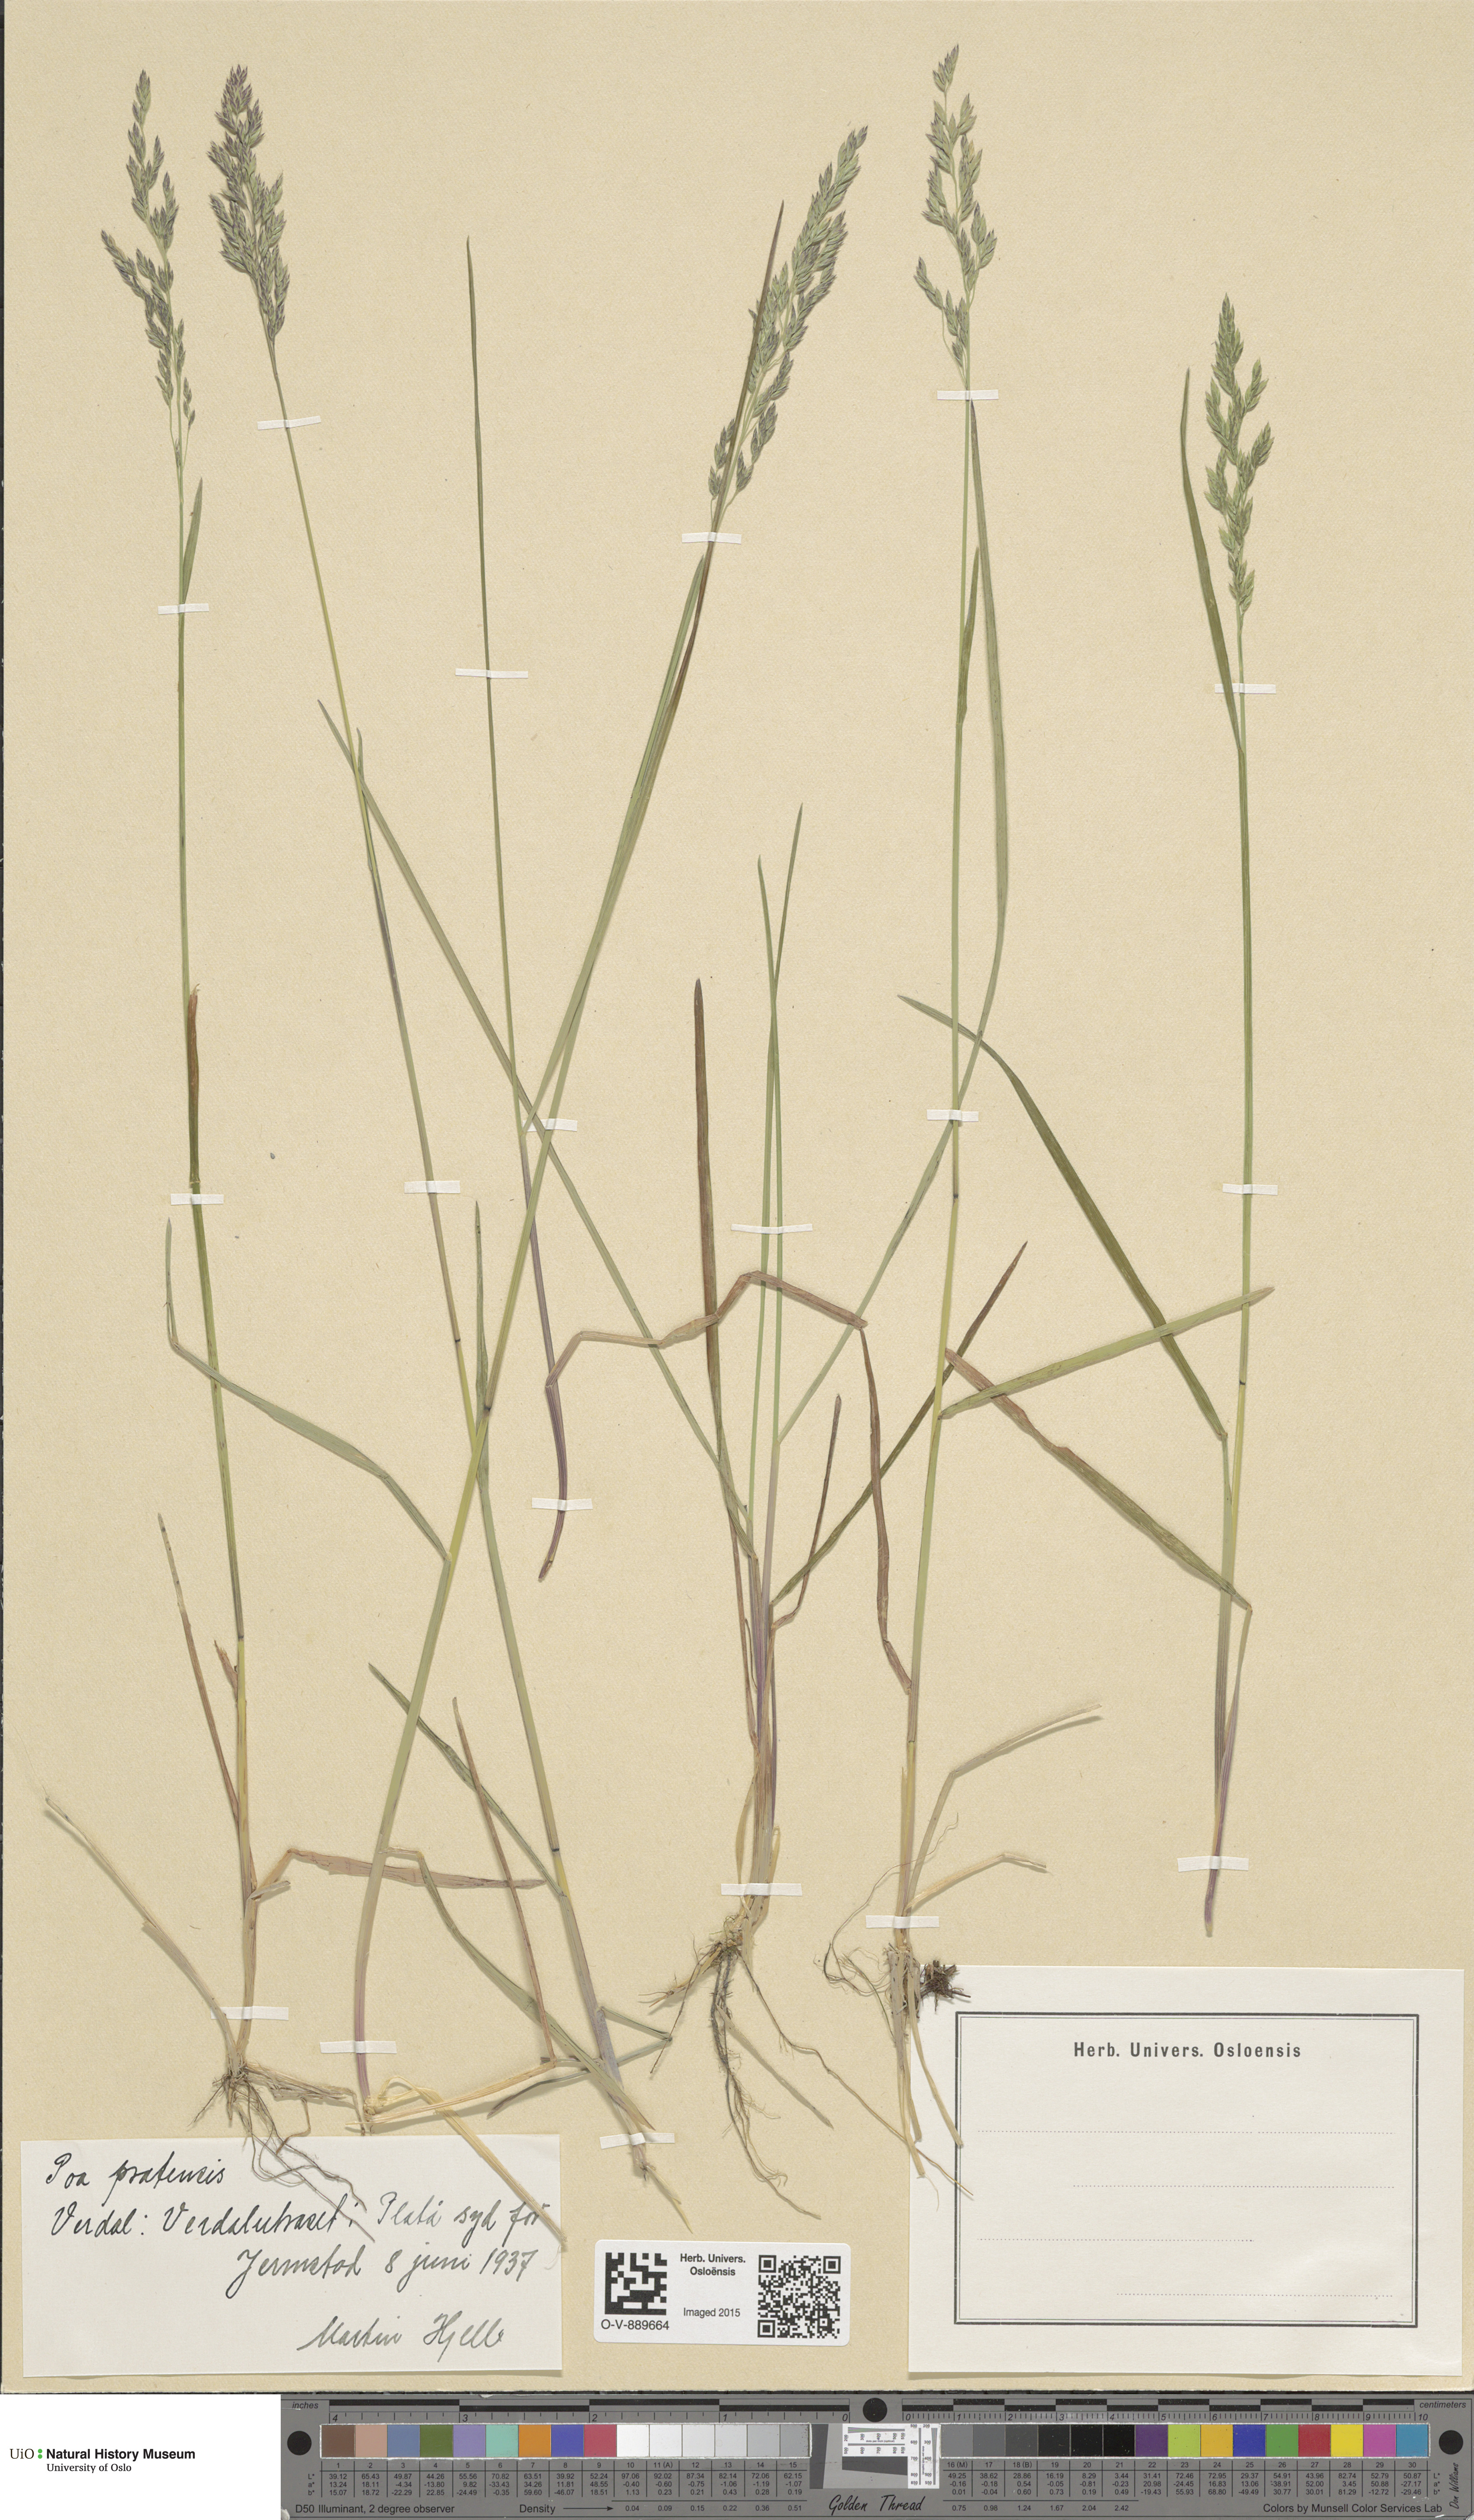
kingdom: Plantae
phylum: Tracheophyta
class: Liliopsida
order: Poales
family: Poaceae
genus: Poa
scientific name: Poa pratensis
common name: Kentucky bluegrass
